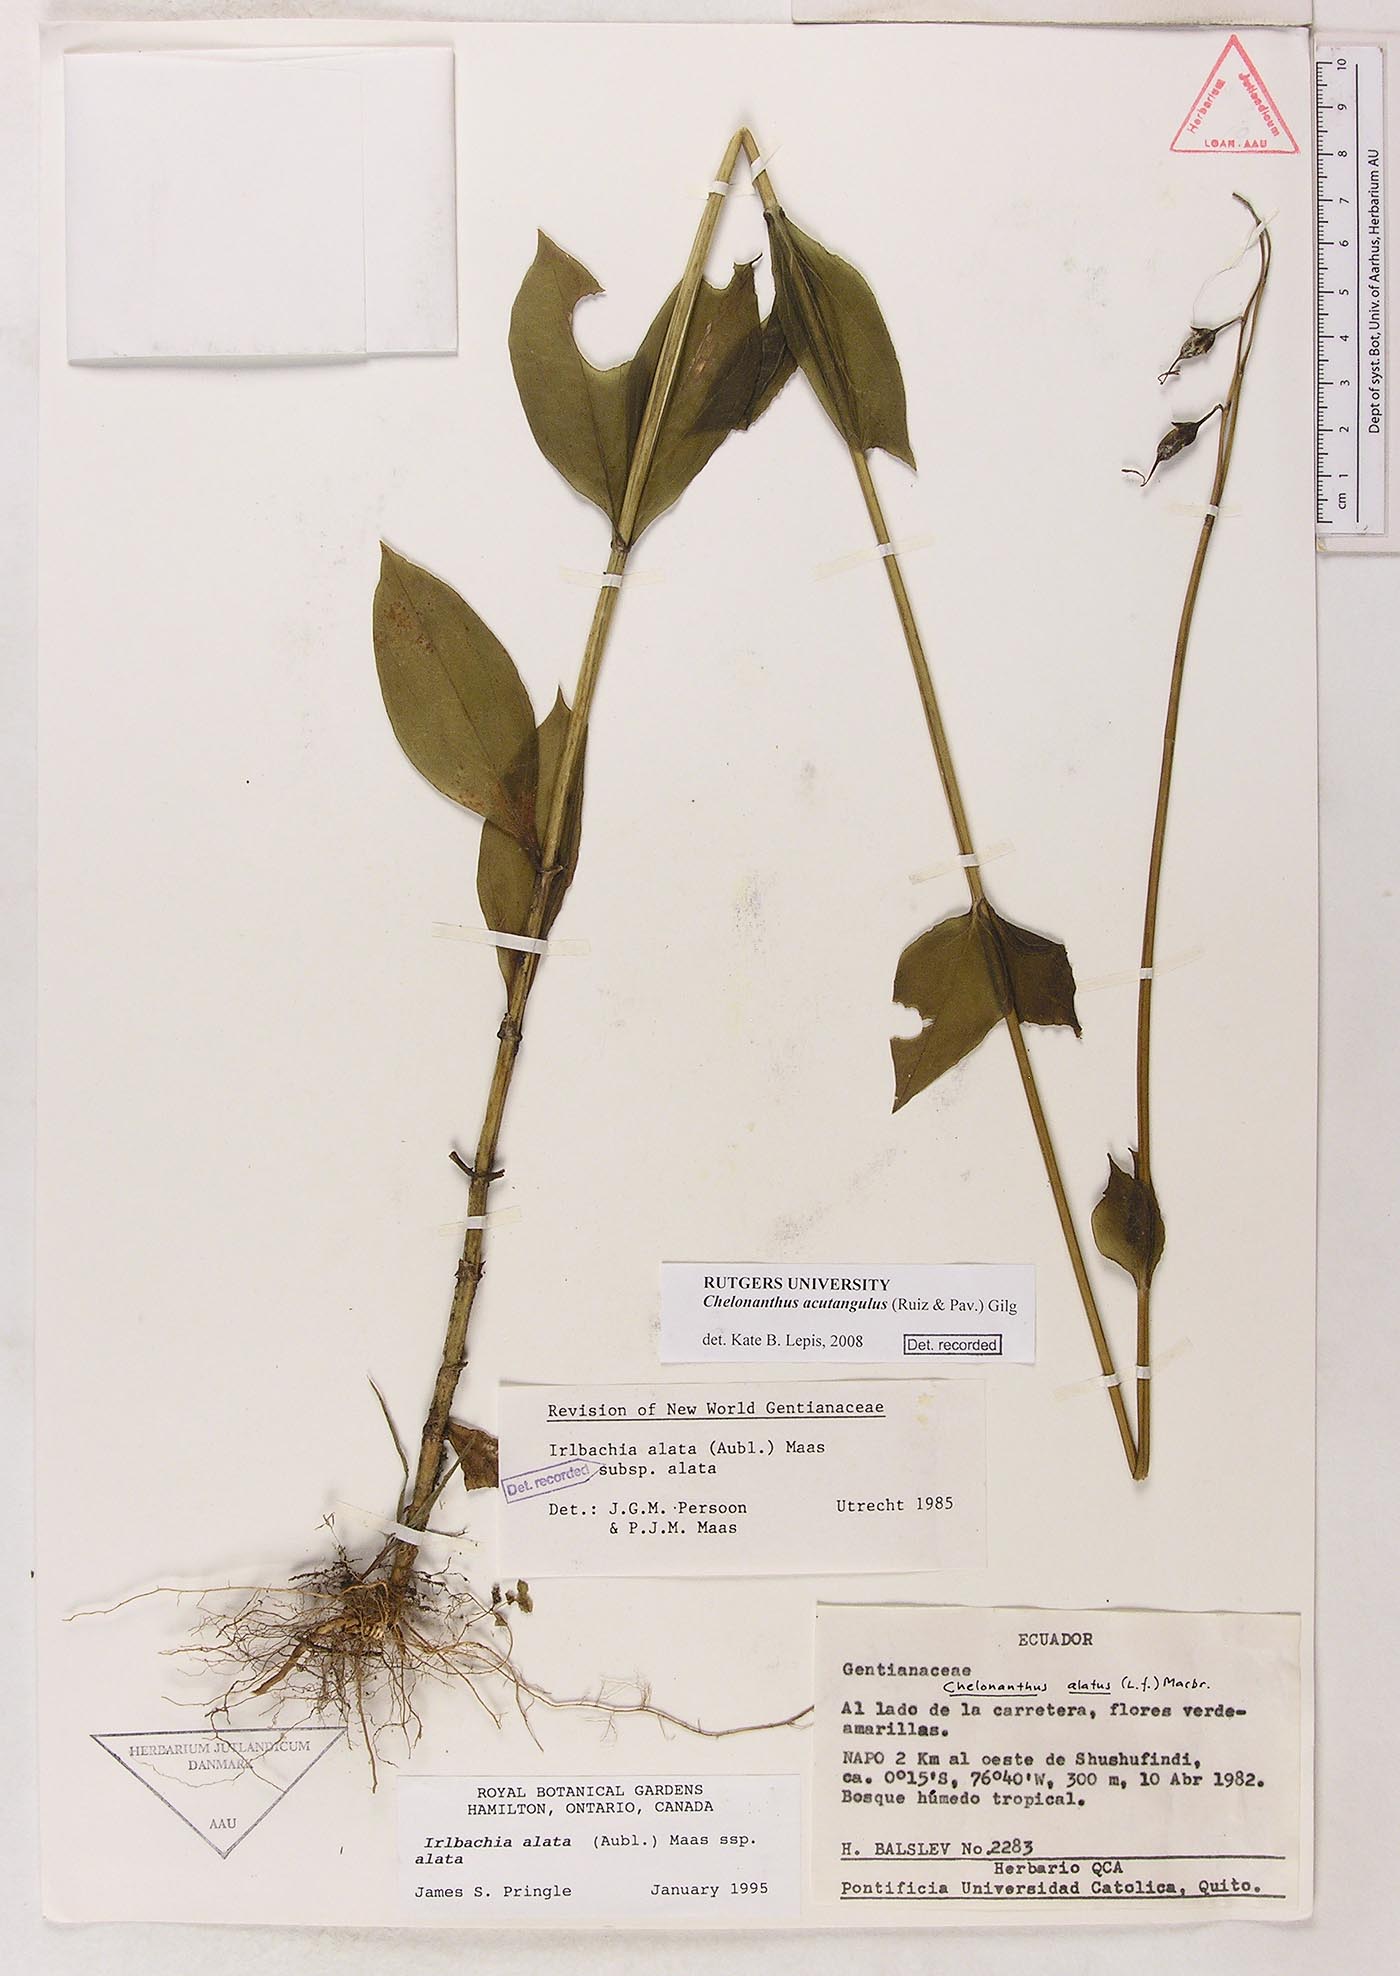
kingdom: Plantae
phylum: Tracheophyta
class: Magnoliopsida
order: Gentianales
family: Gentianaceae
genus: Chelonanthus
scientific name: Chelonanthus alatus
